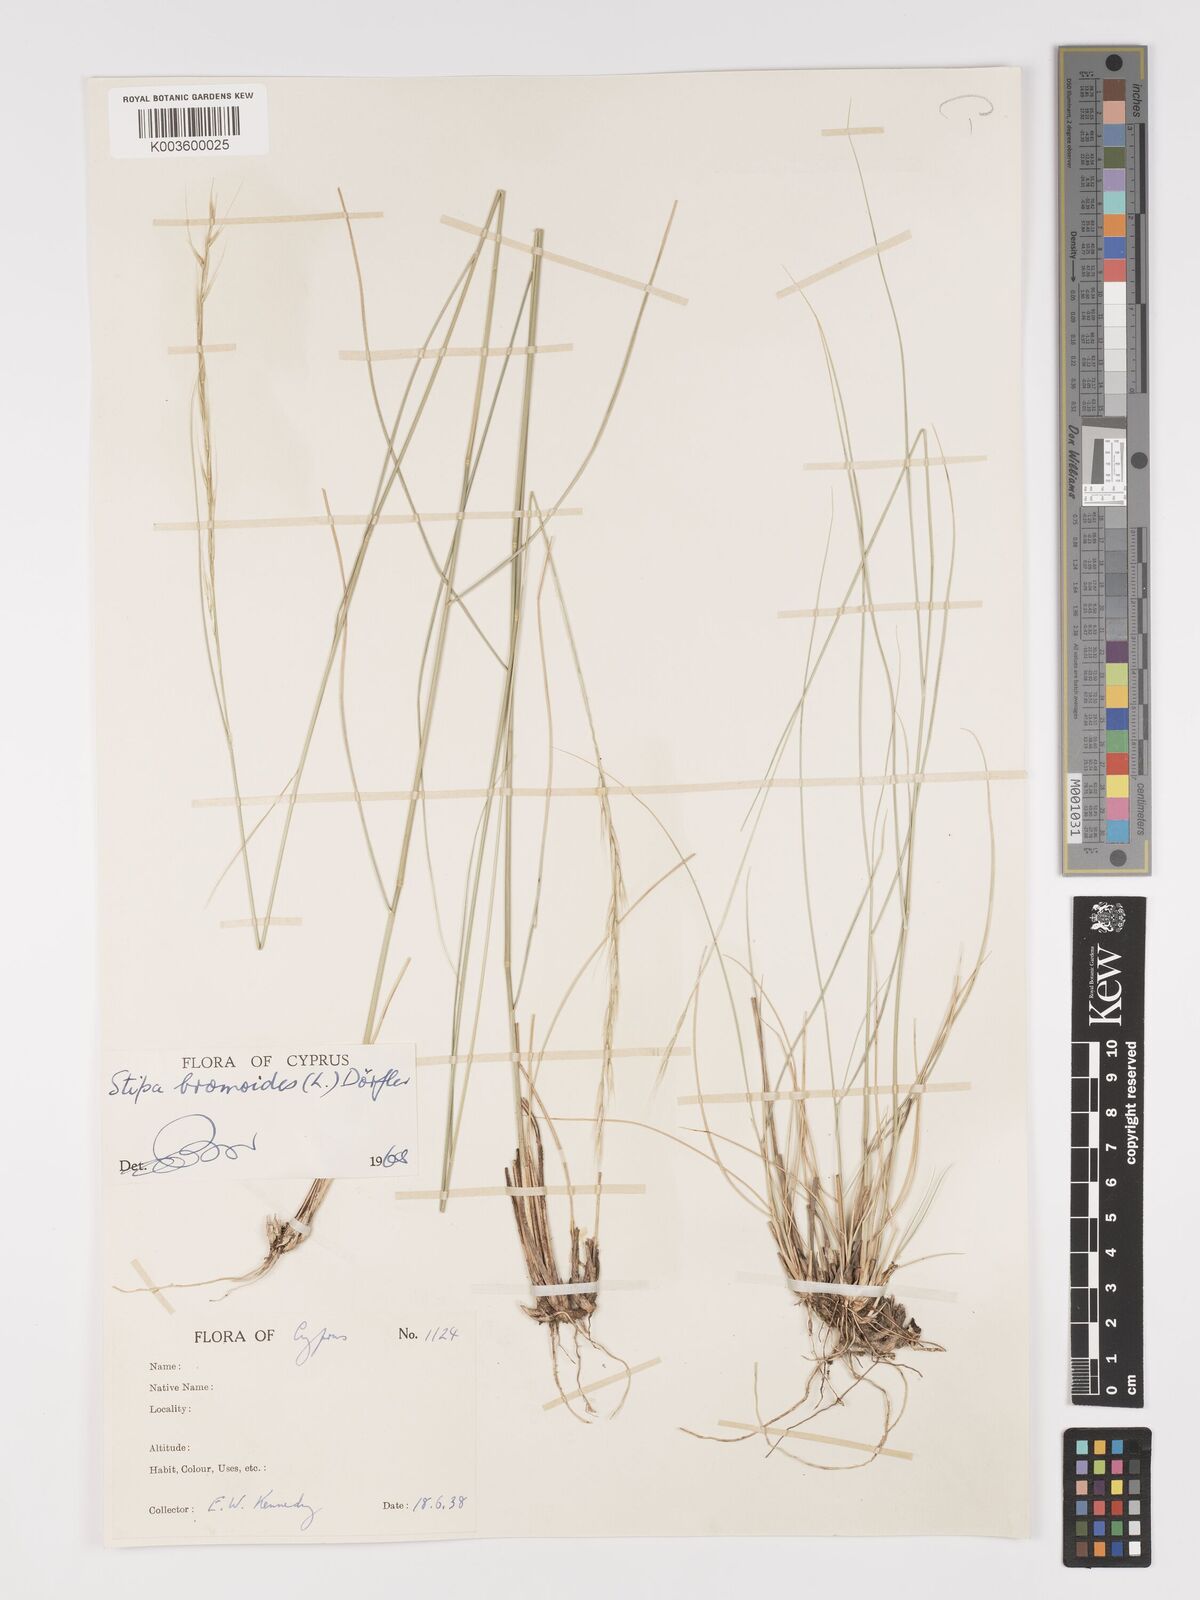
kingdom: Plantae
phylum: Tracheophyta
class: Liliopsida
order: Poales
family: Poaceae
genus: Achnatherum
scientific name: Achnatherum bromoides
